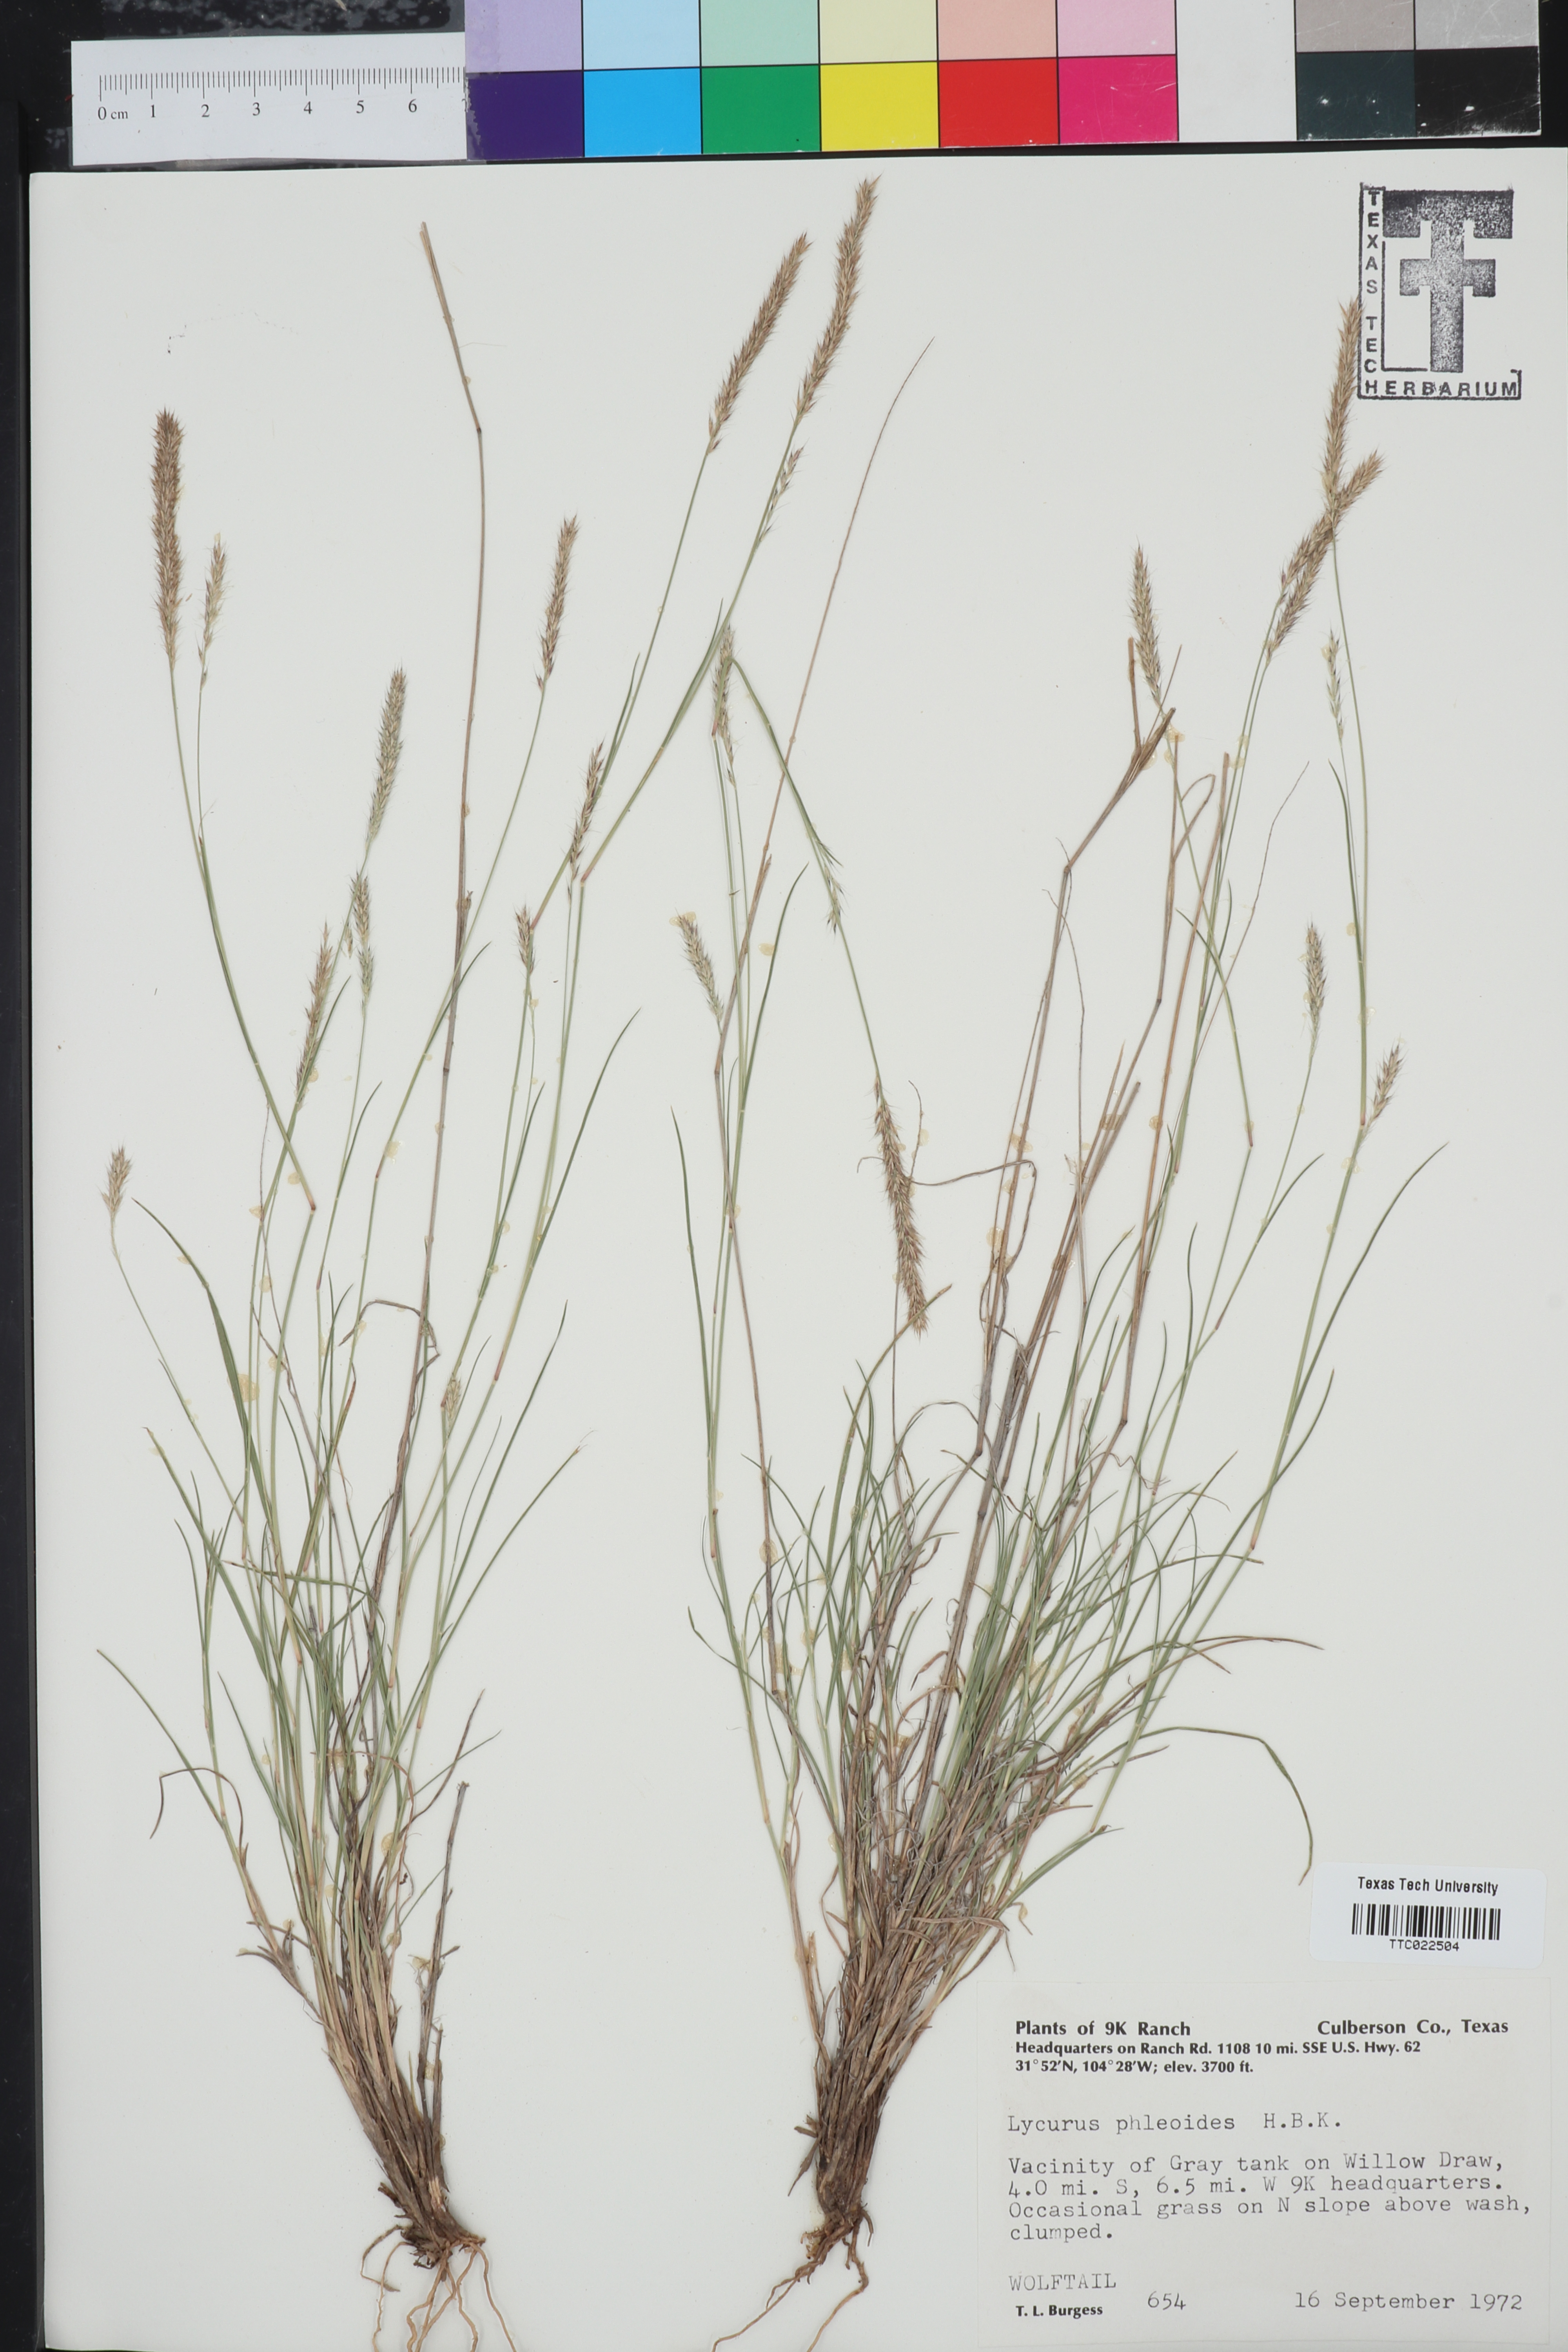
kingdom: Plantae
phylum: Tracheophyta
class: Liliopsida
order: Poales
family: Poaceae
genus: Muhlenbergia
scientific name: Muhlenbergia phleoides
